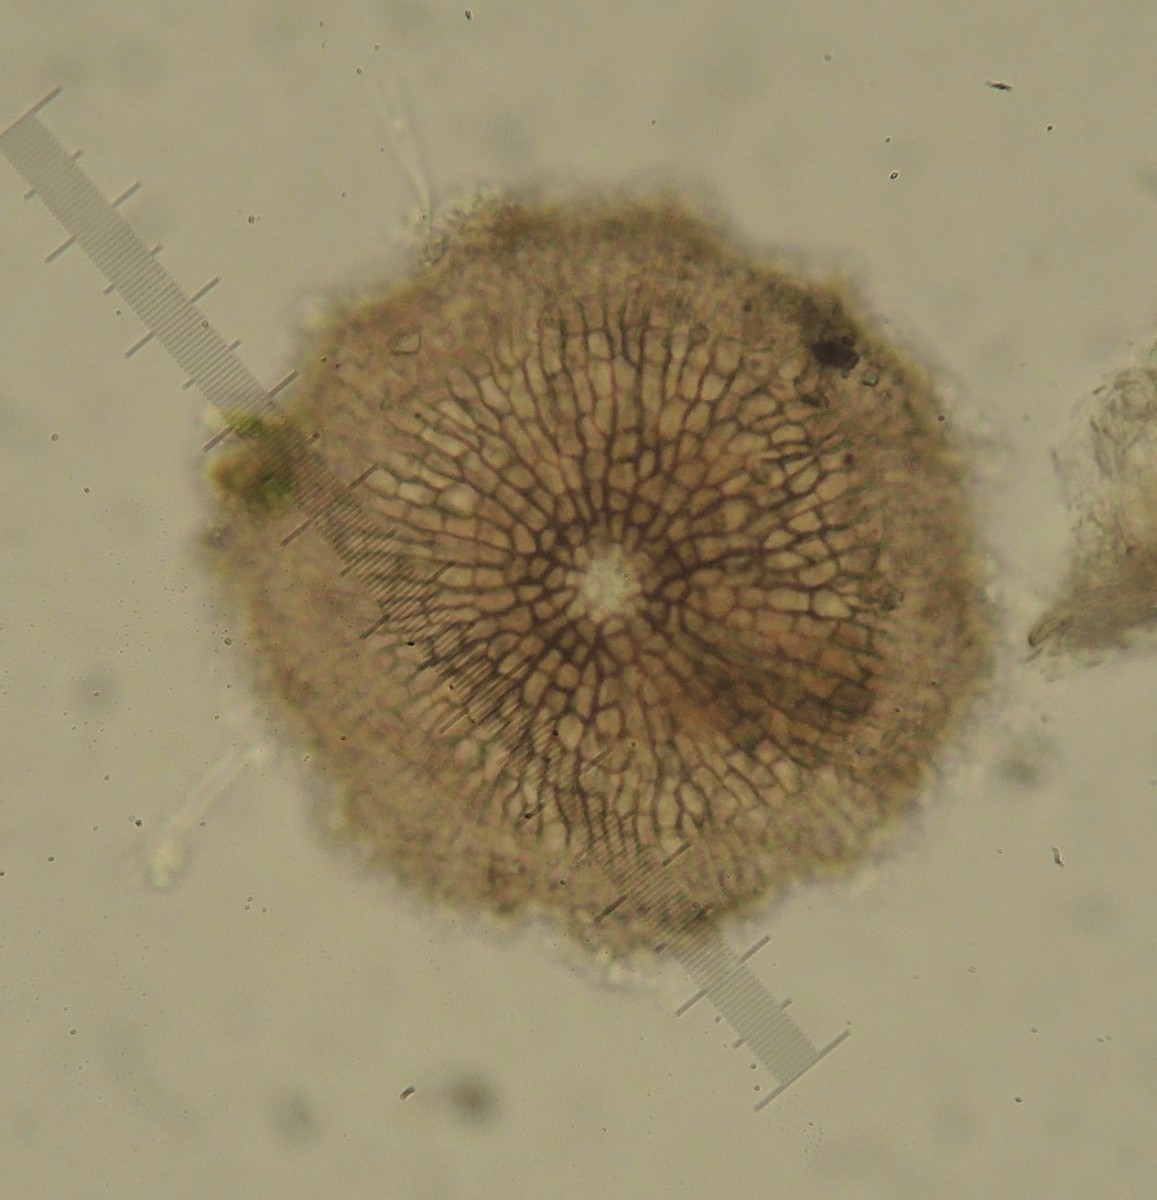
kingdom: Fungi
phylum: Ascomycota
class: Dothideomycetes
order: Microthyriales
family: Microthyriaceae
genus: Lichenopeltella
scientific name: Lichenopeltella ammophilae
